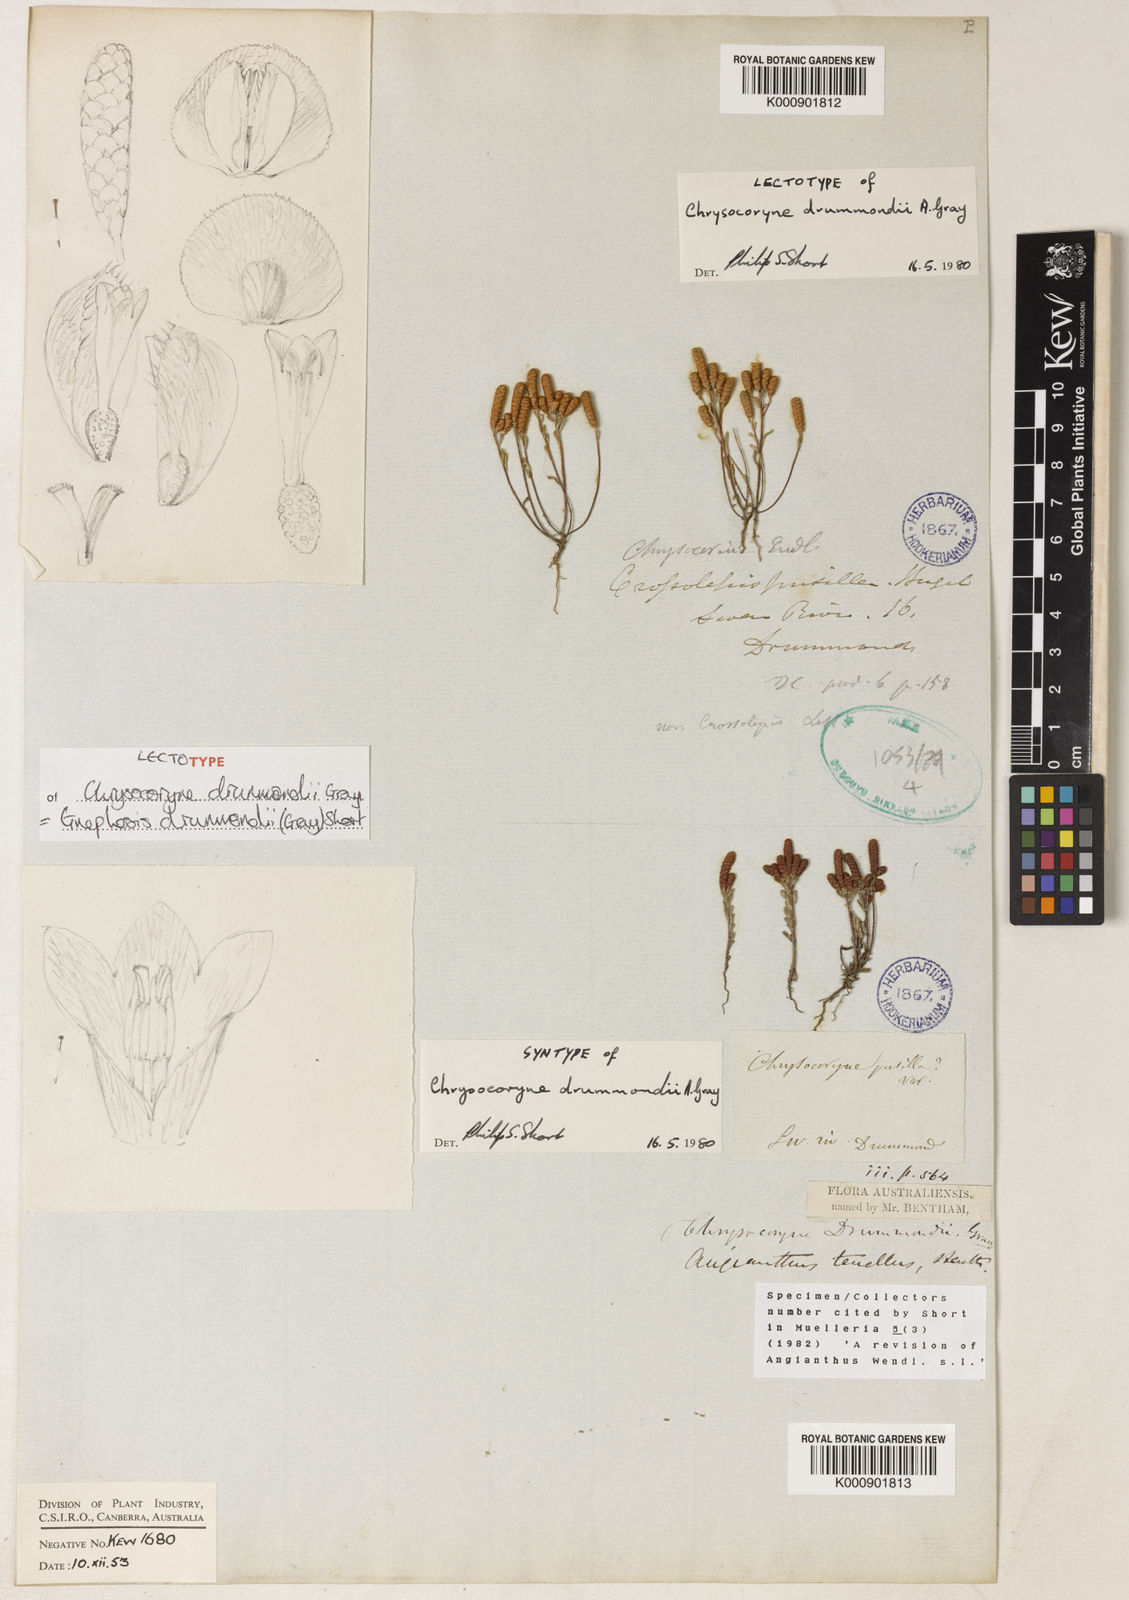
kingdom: Plantae
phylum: Tracheophyta
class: Magnoliopsida
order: Asterales
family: Asteraceae
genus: Gnephosis
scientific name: Gnephosis drummondii
